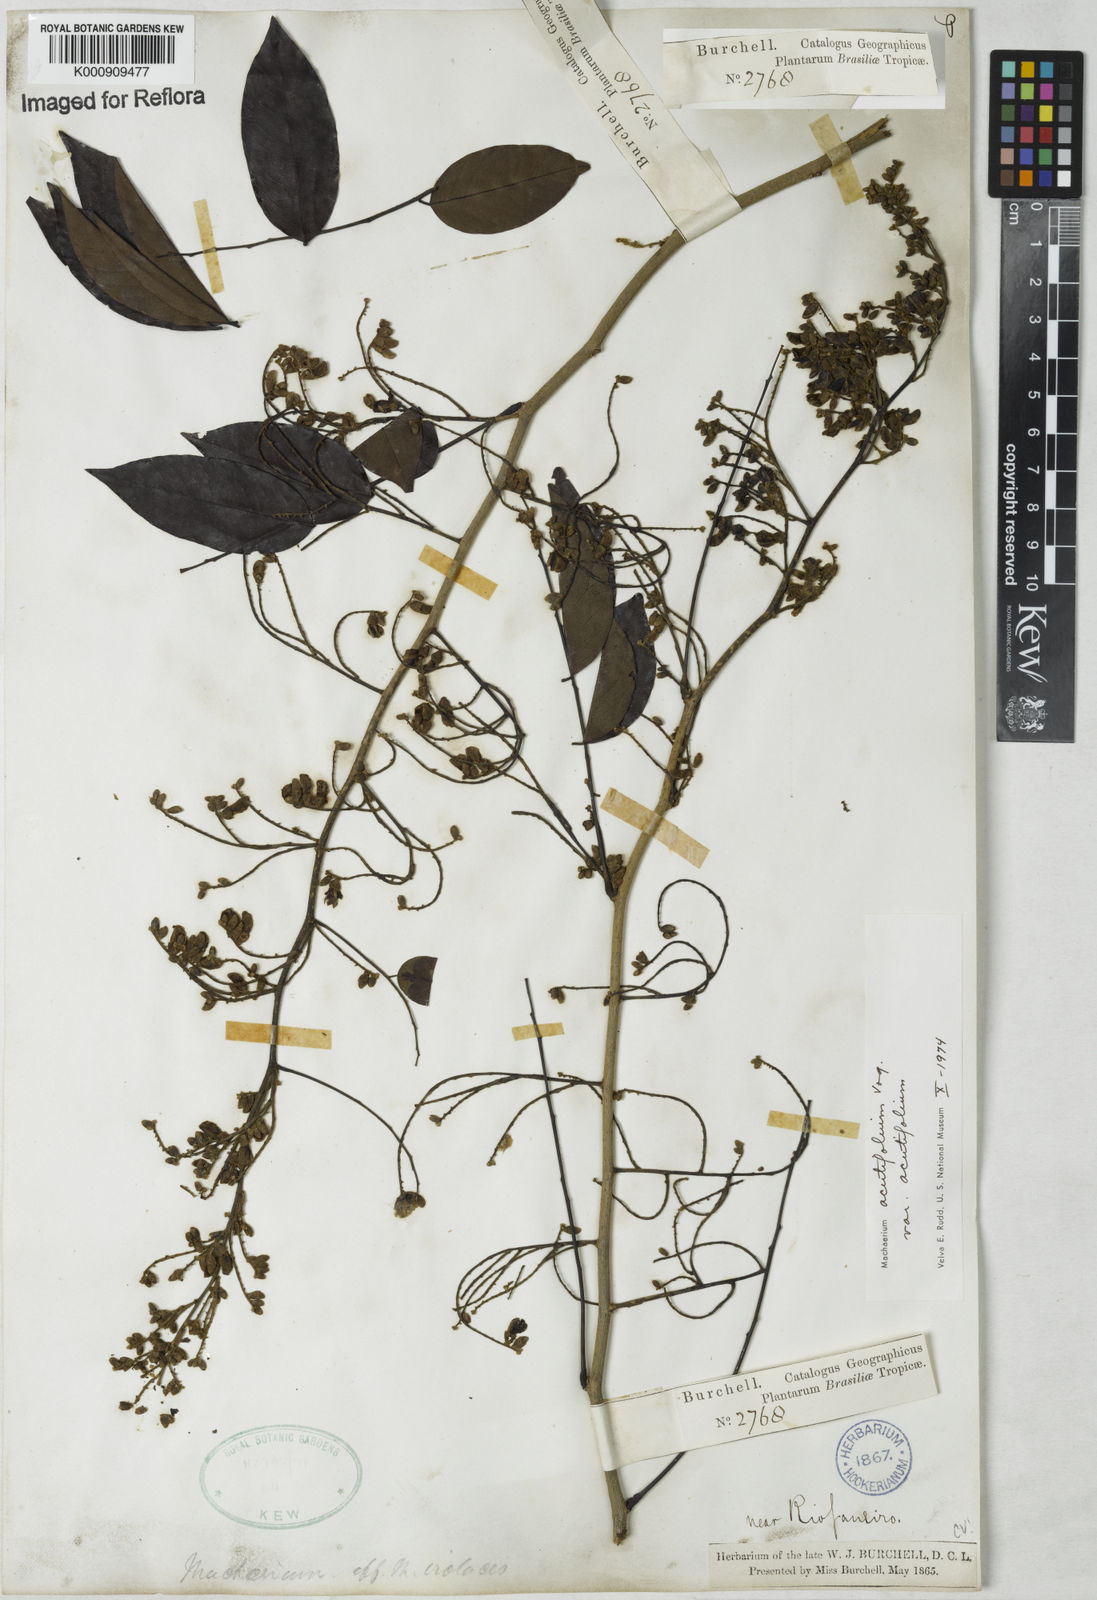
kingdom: Plantae
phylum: Tracheophyta
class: Magnoliopsida
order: Fabales
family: Fabaceae
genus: Machaerium
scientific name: Machaerium acutifolium
